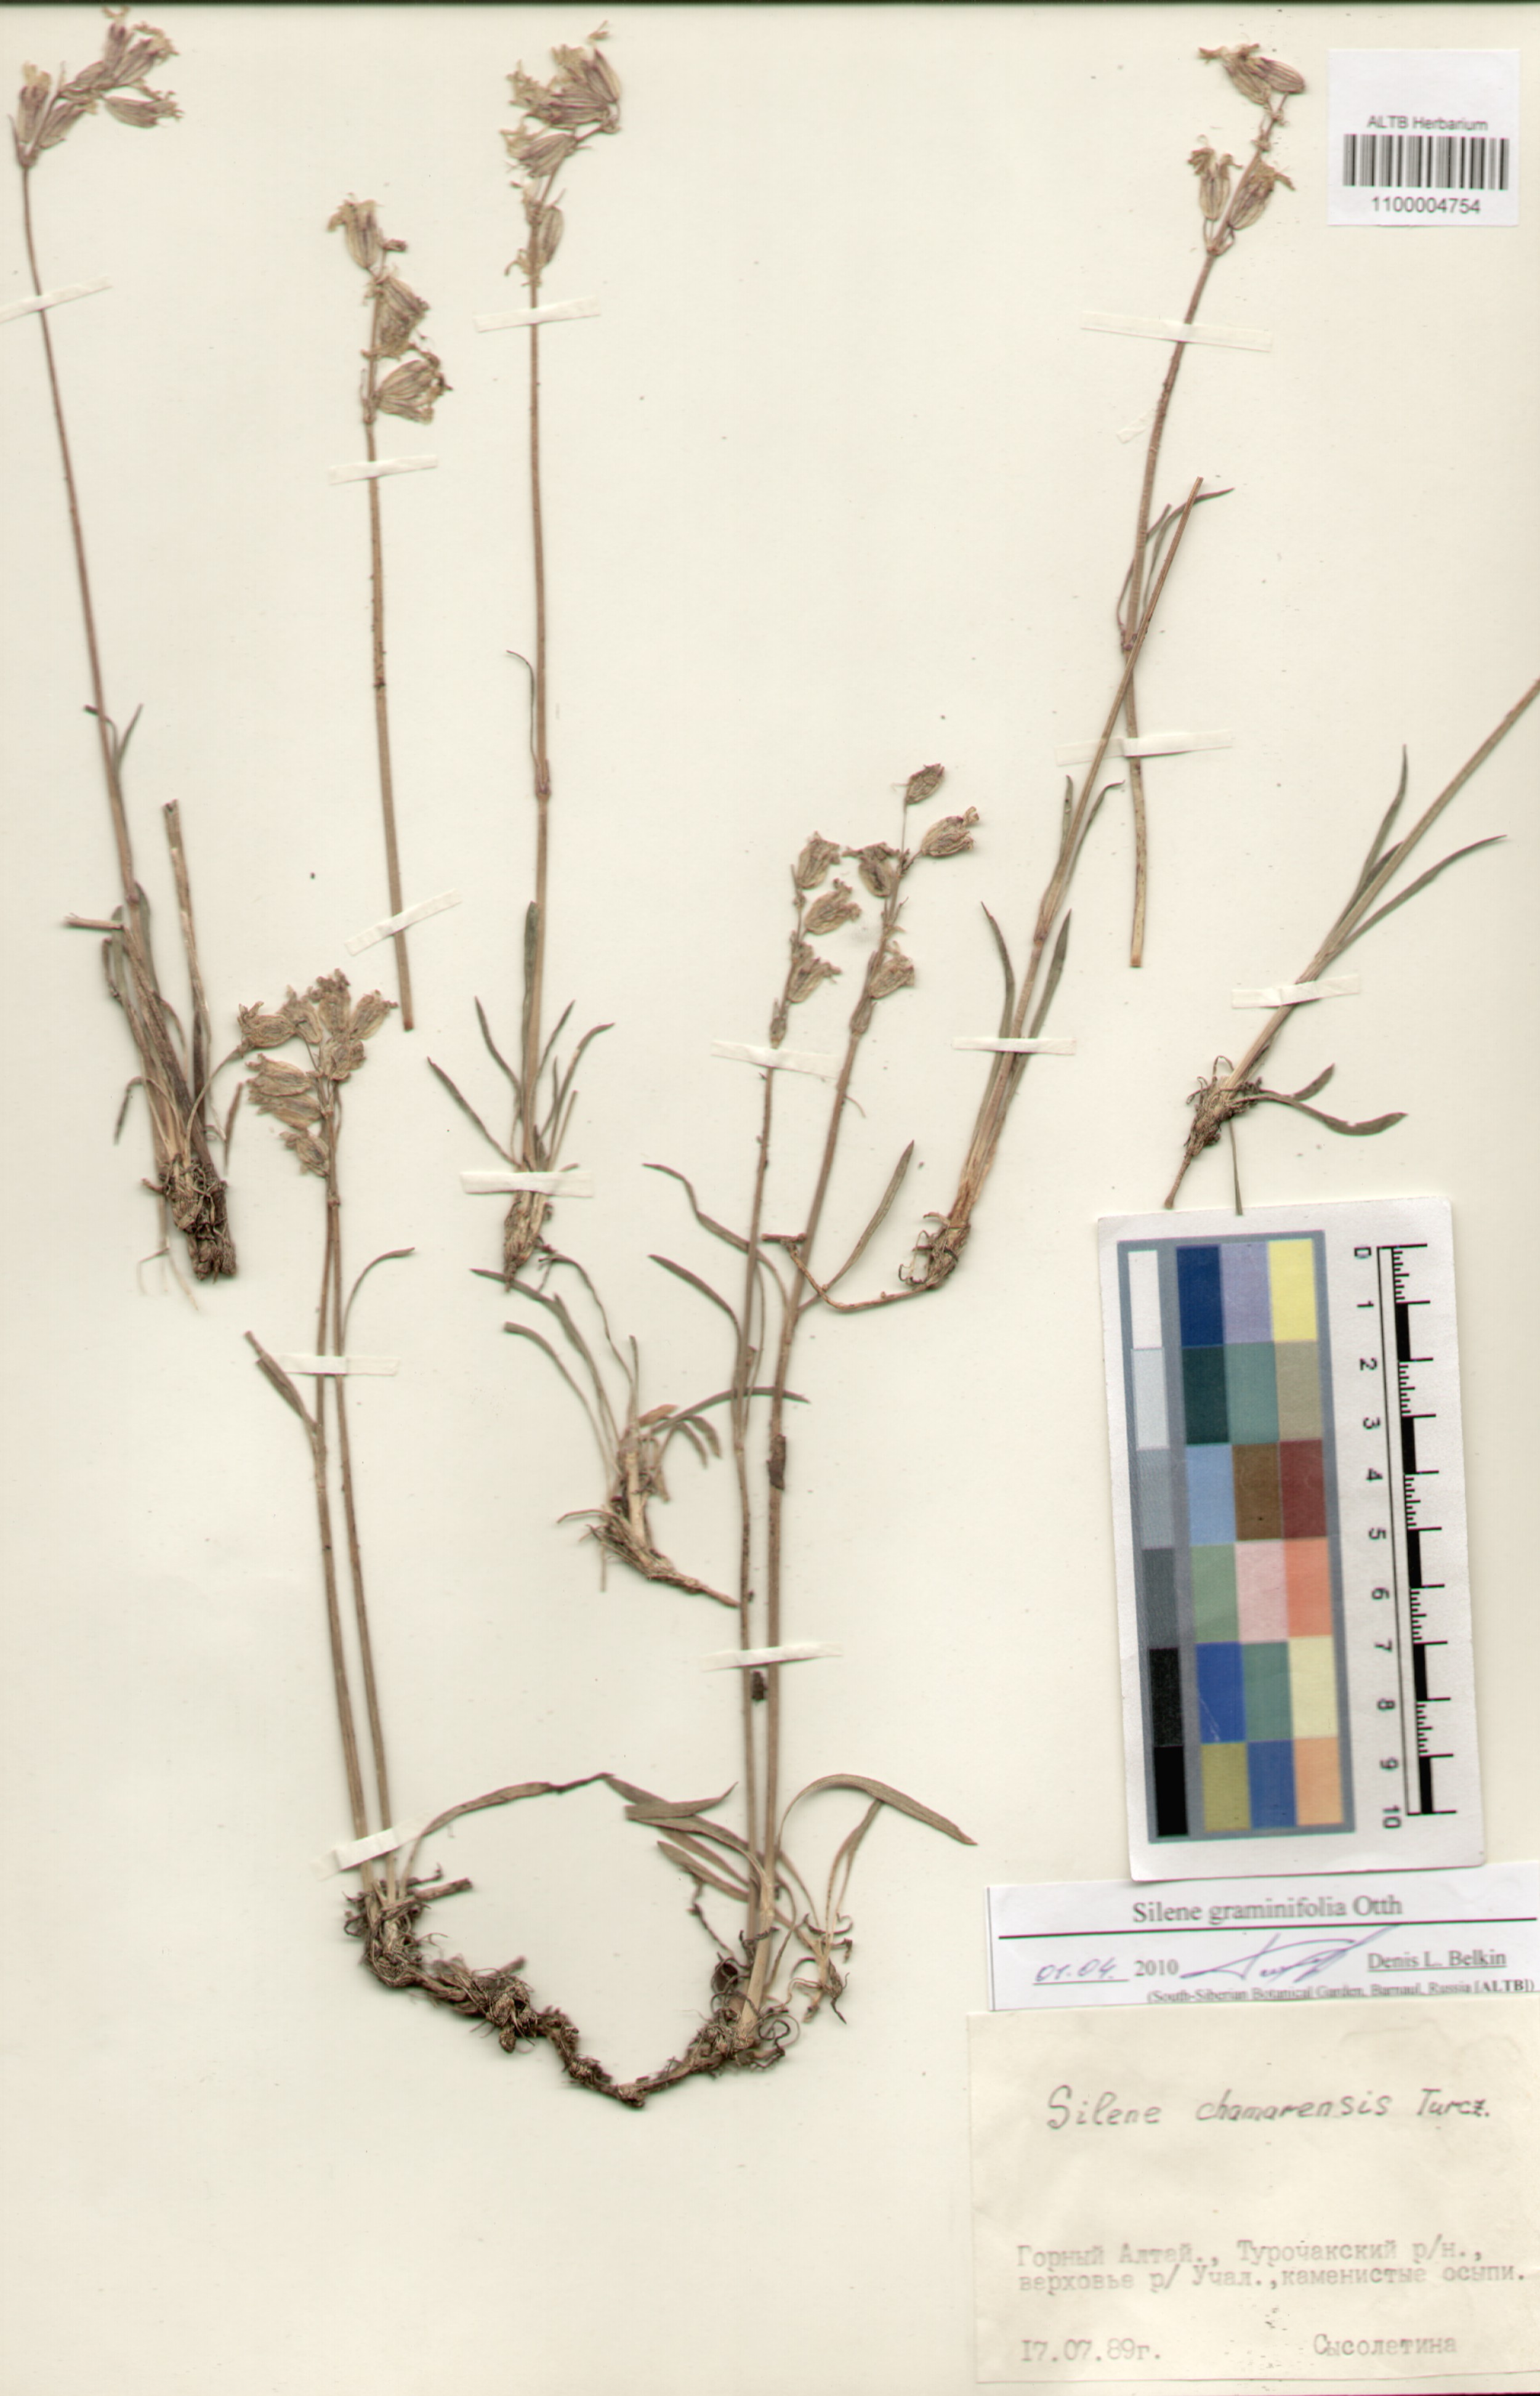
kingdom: Plantae
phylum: Tracheophyta
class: Magnoliopsida
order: Caryophyllales
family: Caryophyllaceae
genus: Silene
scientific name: Silene graminifolia
